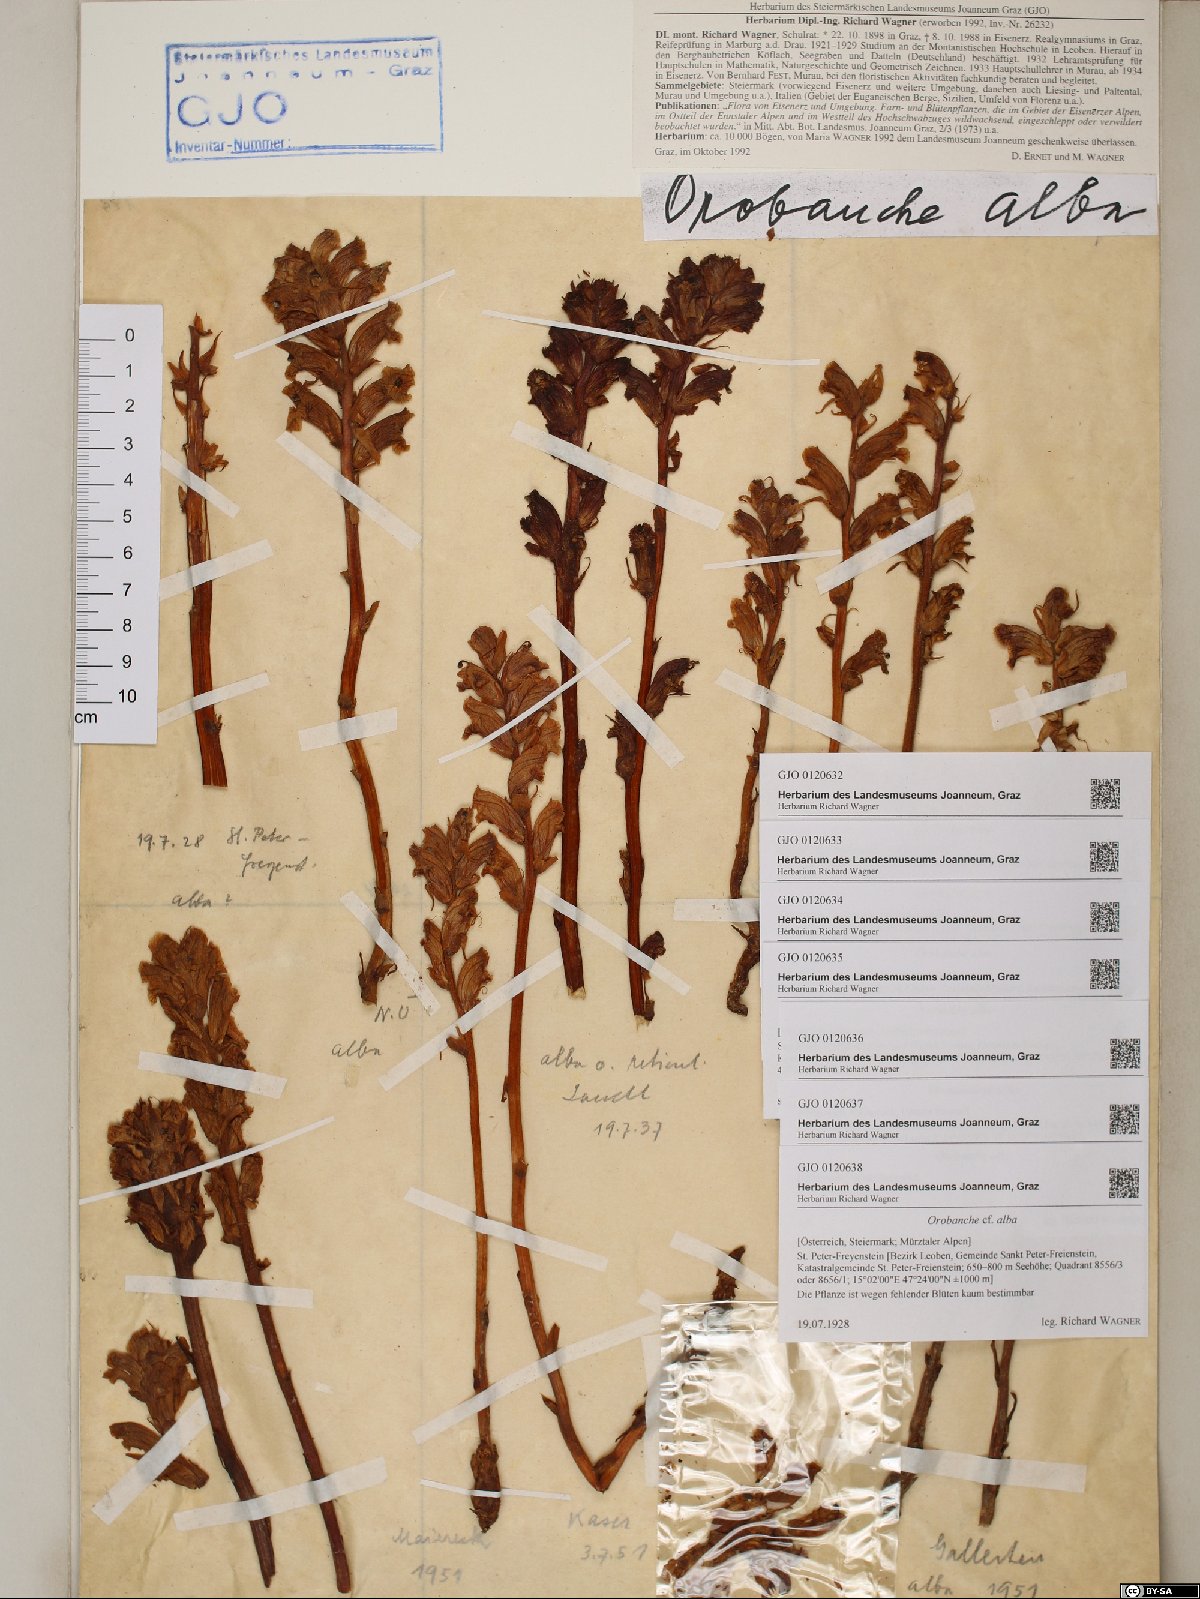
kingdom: Plantae
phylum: Tracheophyta
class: Magnoliopsida
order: Lamiales
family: Orobanchaceae
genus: Orobanche
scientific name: Orobanche alba
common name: Thyme broomrape
